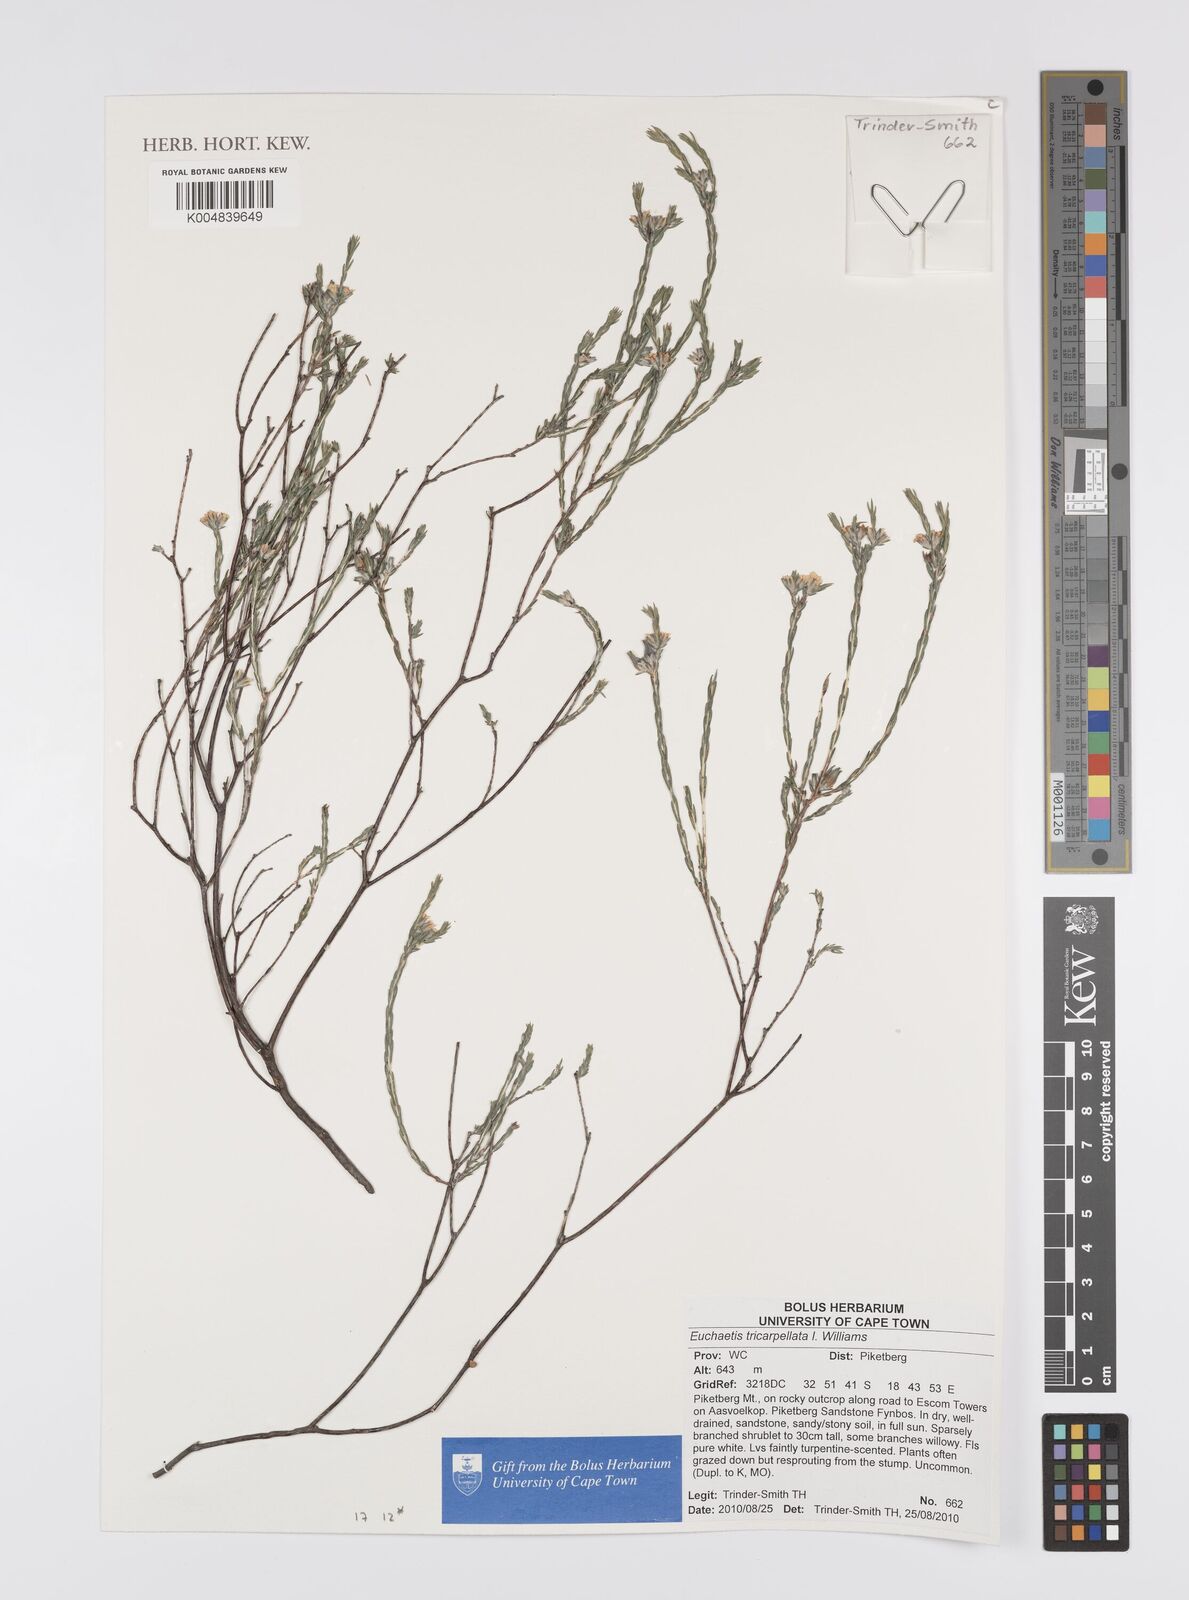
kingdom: Plantae
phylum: Tracheophyta
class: Magnoliopsida
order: Sapindales
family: Rutaceae
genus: Euchaetis
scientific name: Euchaetis burchellii
